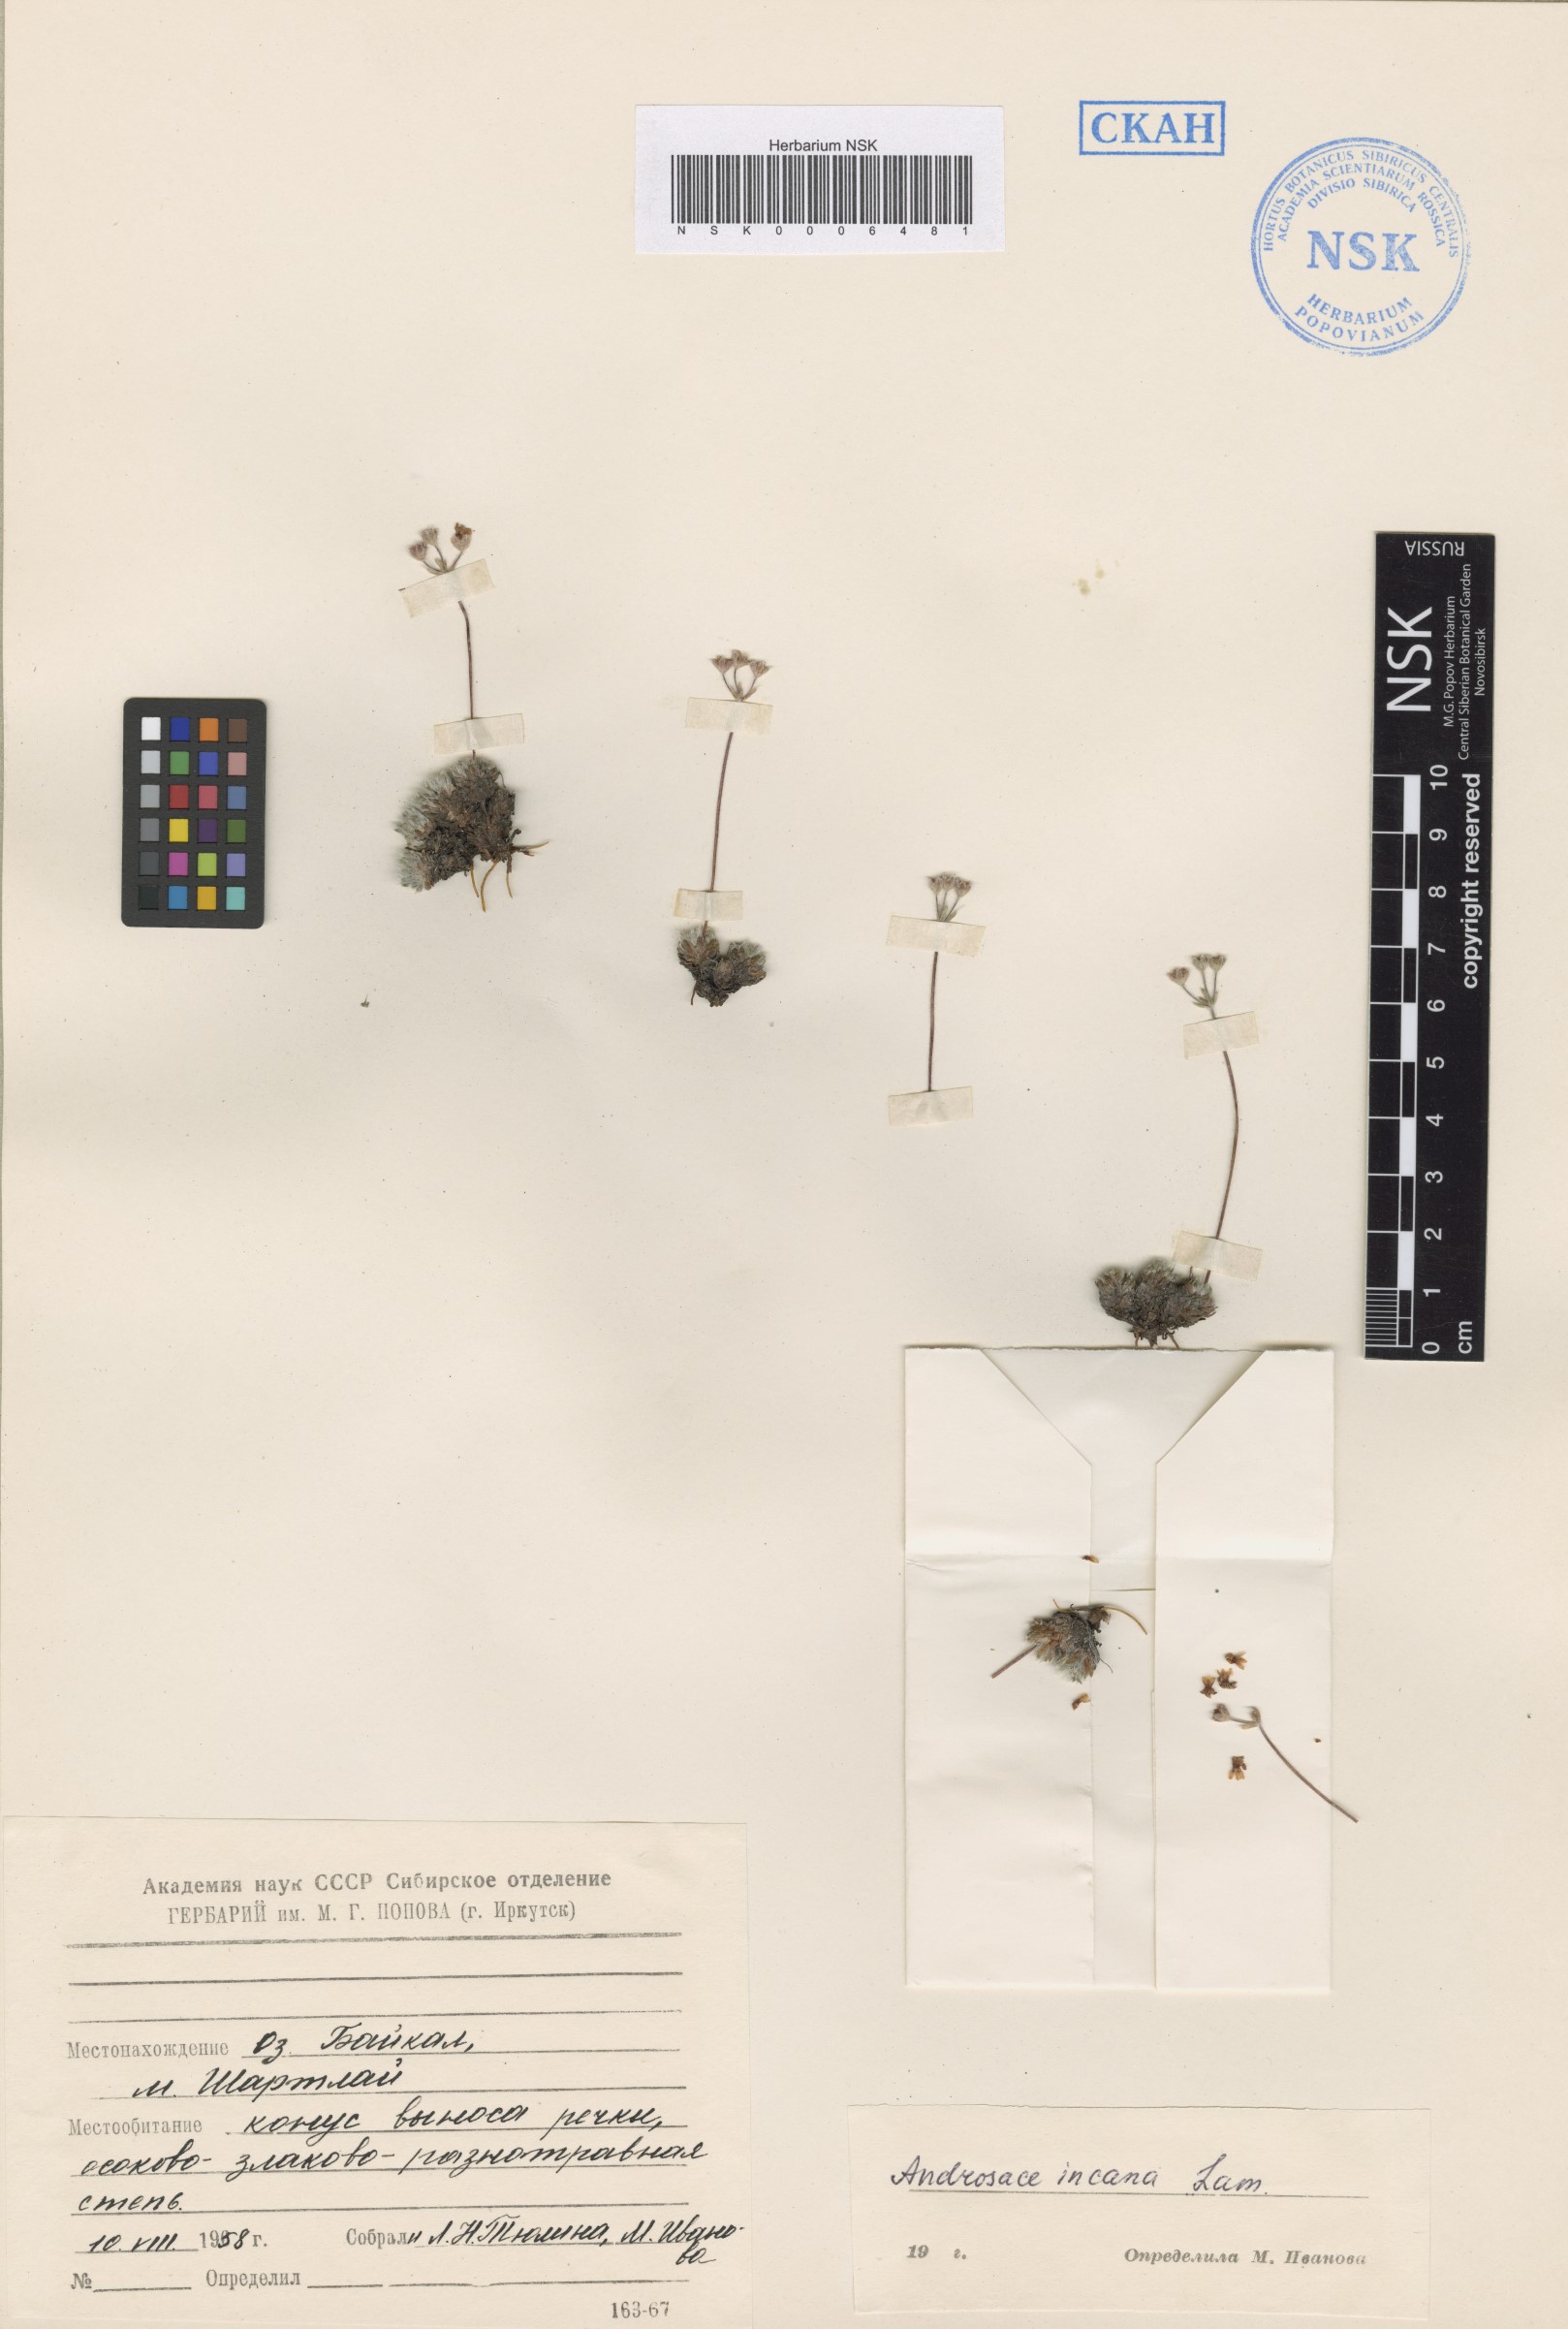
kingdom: Plantae
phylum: Tracheophyta
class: Magnoliopsida
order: Ericales
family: Primulaceae
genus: Androsace
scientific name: Androsace incana
